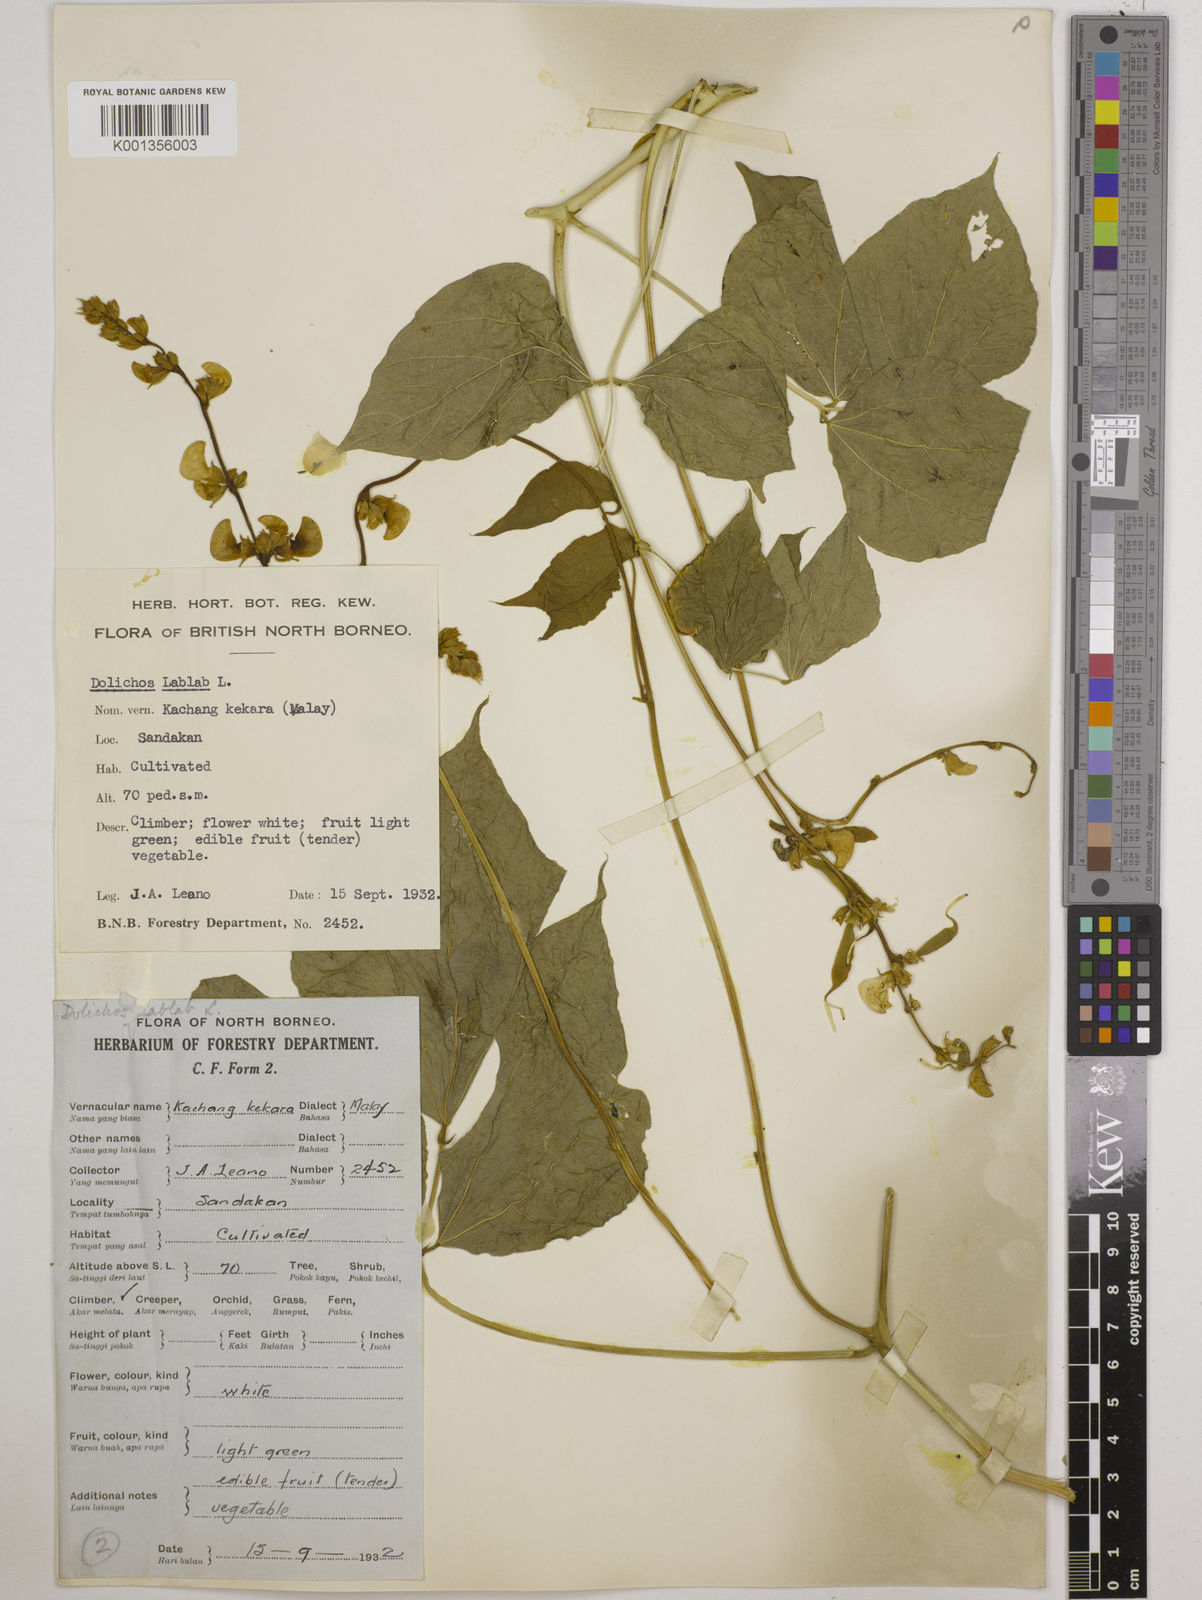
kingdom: Plantae
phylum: Tracheophyta
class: Magnoliopsida
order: Fabales
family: Fabaceae
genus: Lablab
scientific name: Lablab purpureus
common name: Lablab-bean
